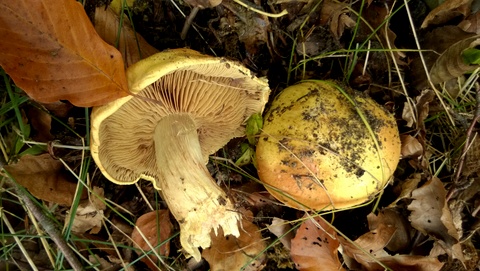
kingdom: Fungi
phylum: Basidiomycota
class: Agaricomycetes
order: Agaricales
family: Cortinariaceae
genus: Cortinarius
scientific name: Cortinarius bergeronii
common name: prægtig slørhat
